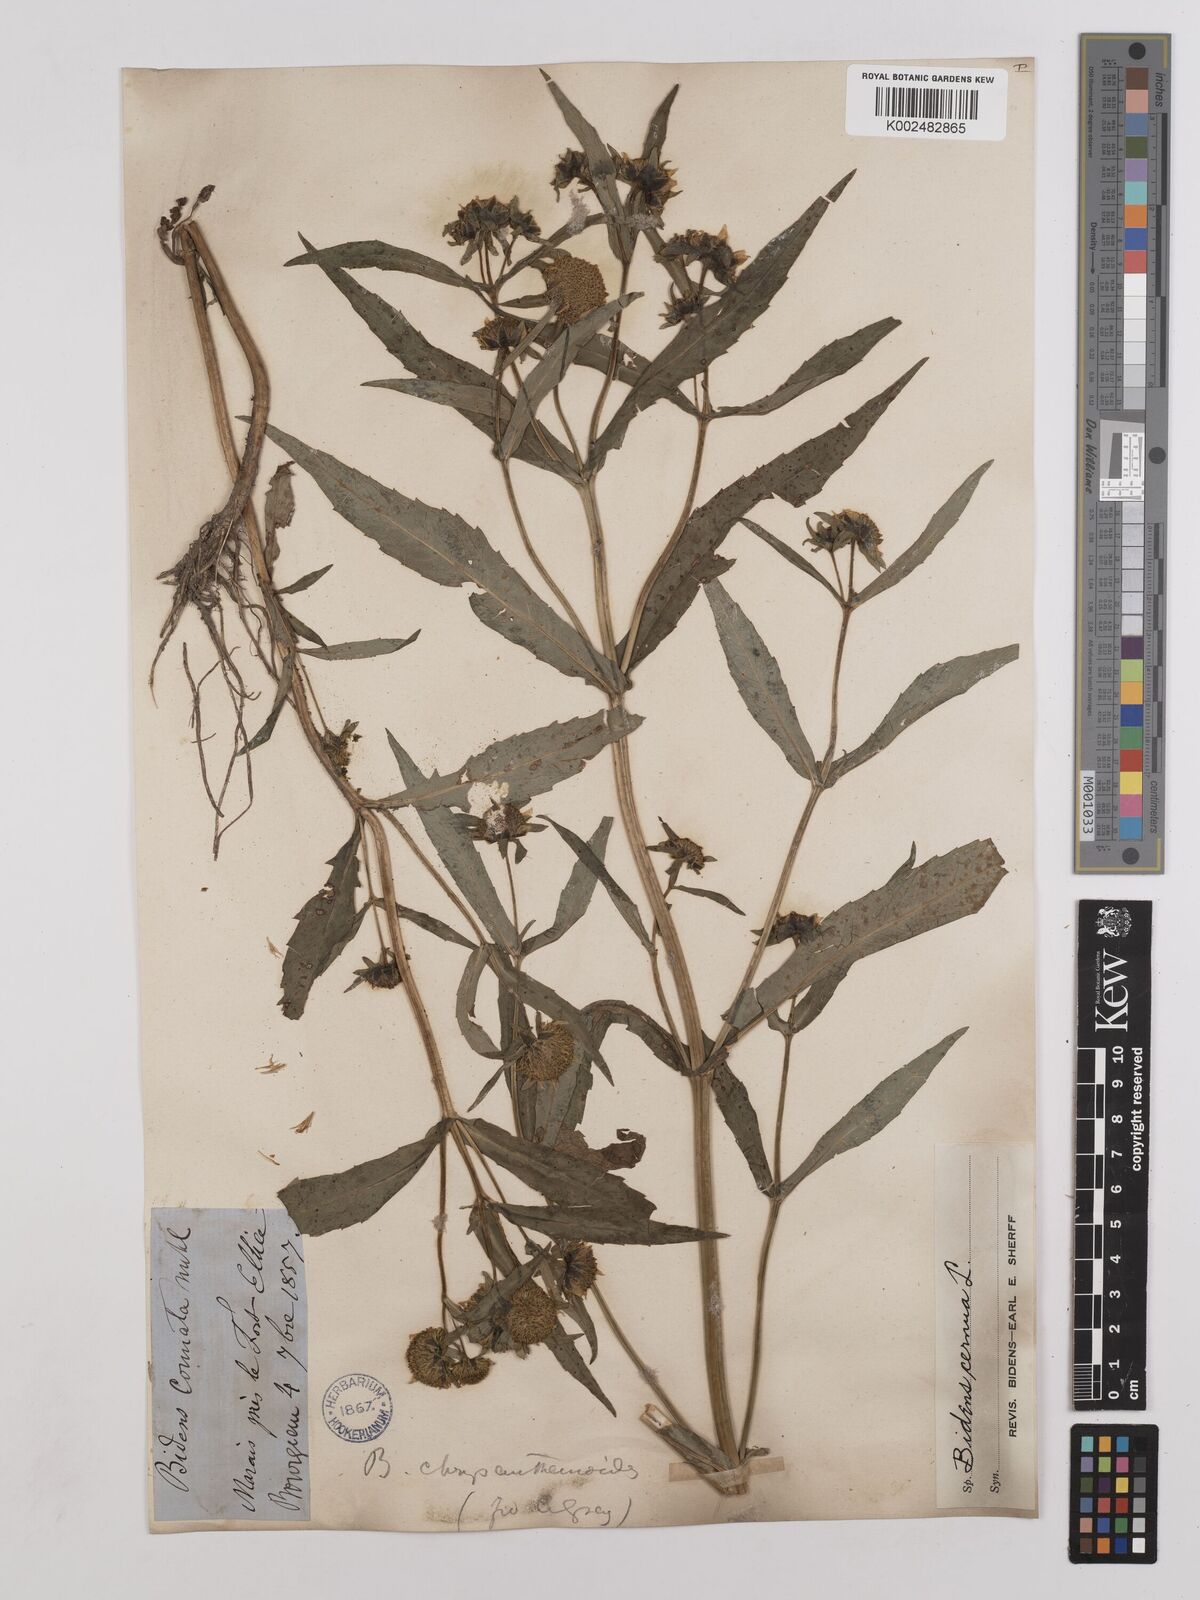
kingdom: Plantae
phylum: Tracheophyta
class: Magnoliopsida
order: Asterales
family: Asteraceae
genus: Bidens
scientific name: Bidens
